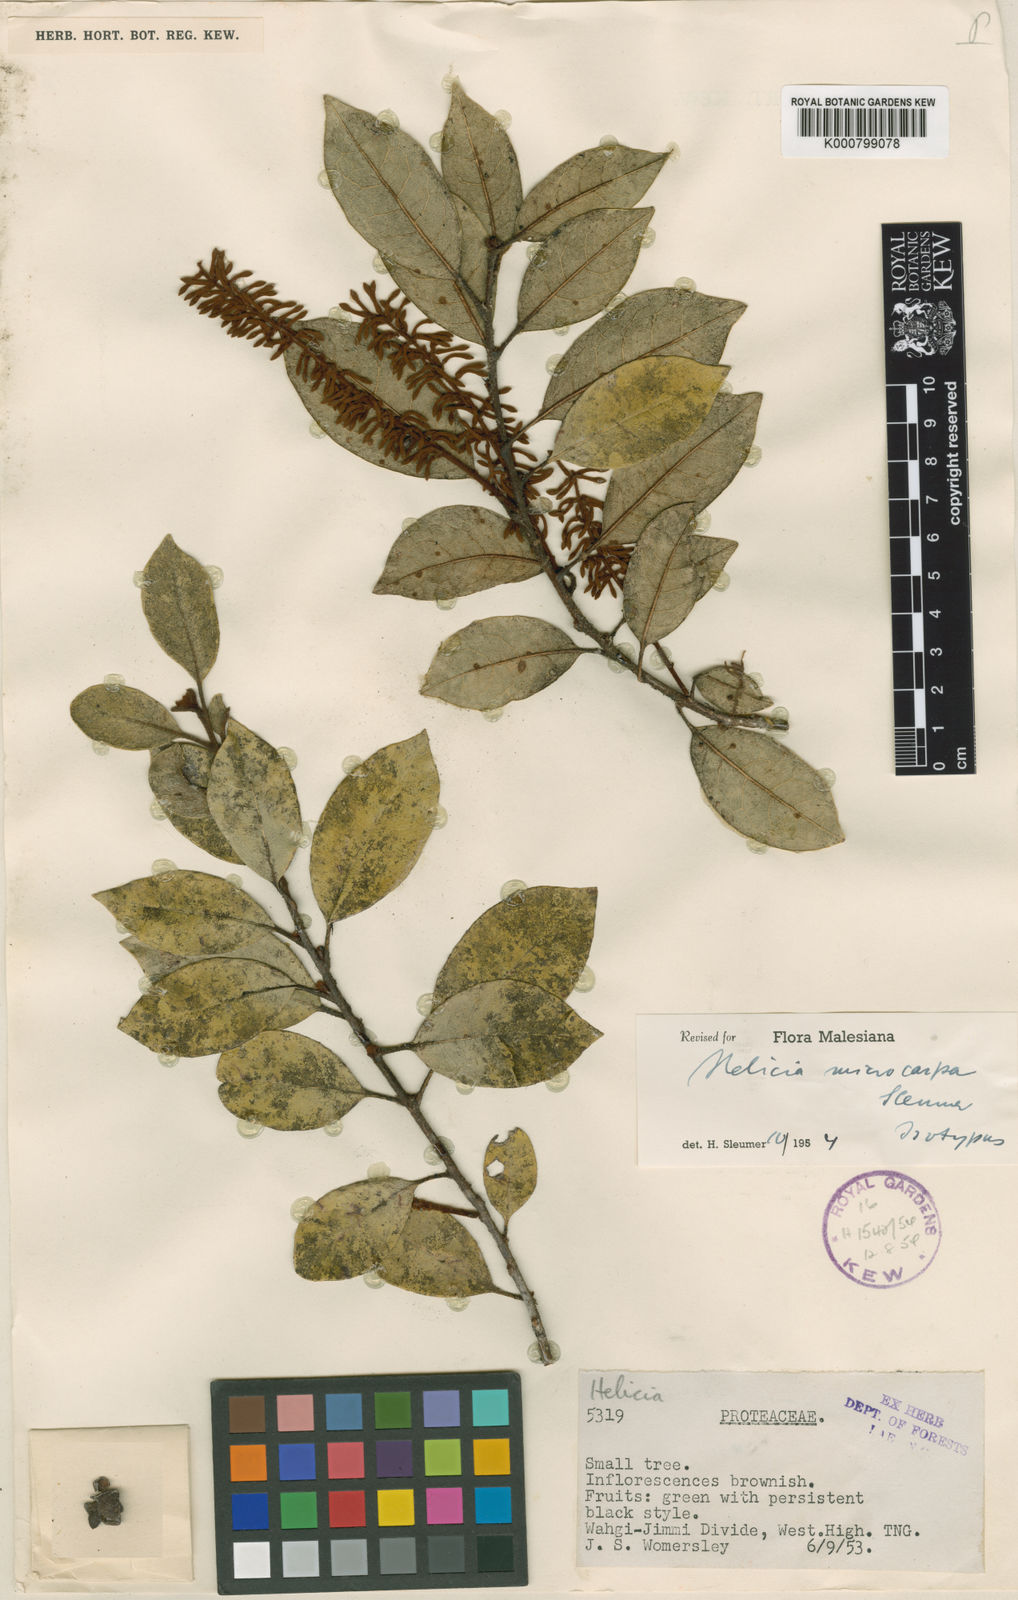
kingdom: Plantae
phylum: Tracheophyta
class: Magnoliopsida
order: Proteales
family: Proteaceae
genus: Helicia
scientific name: Helicia microphylla
